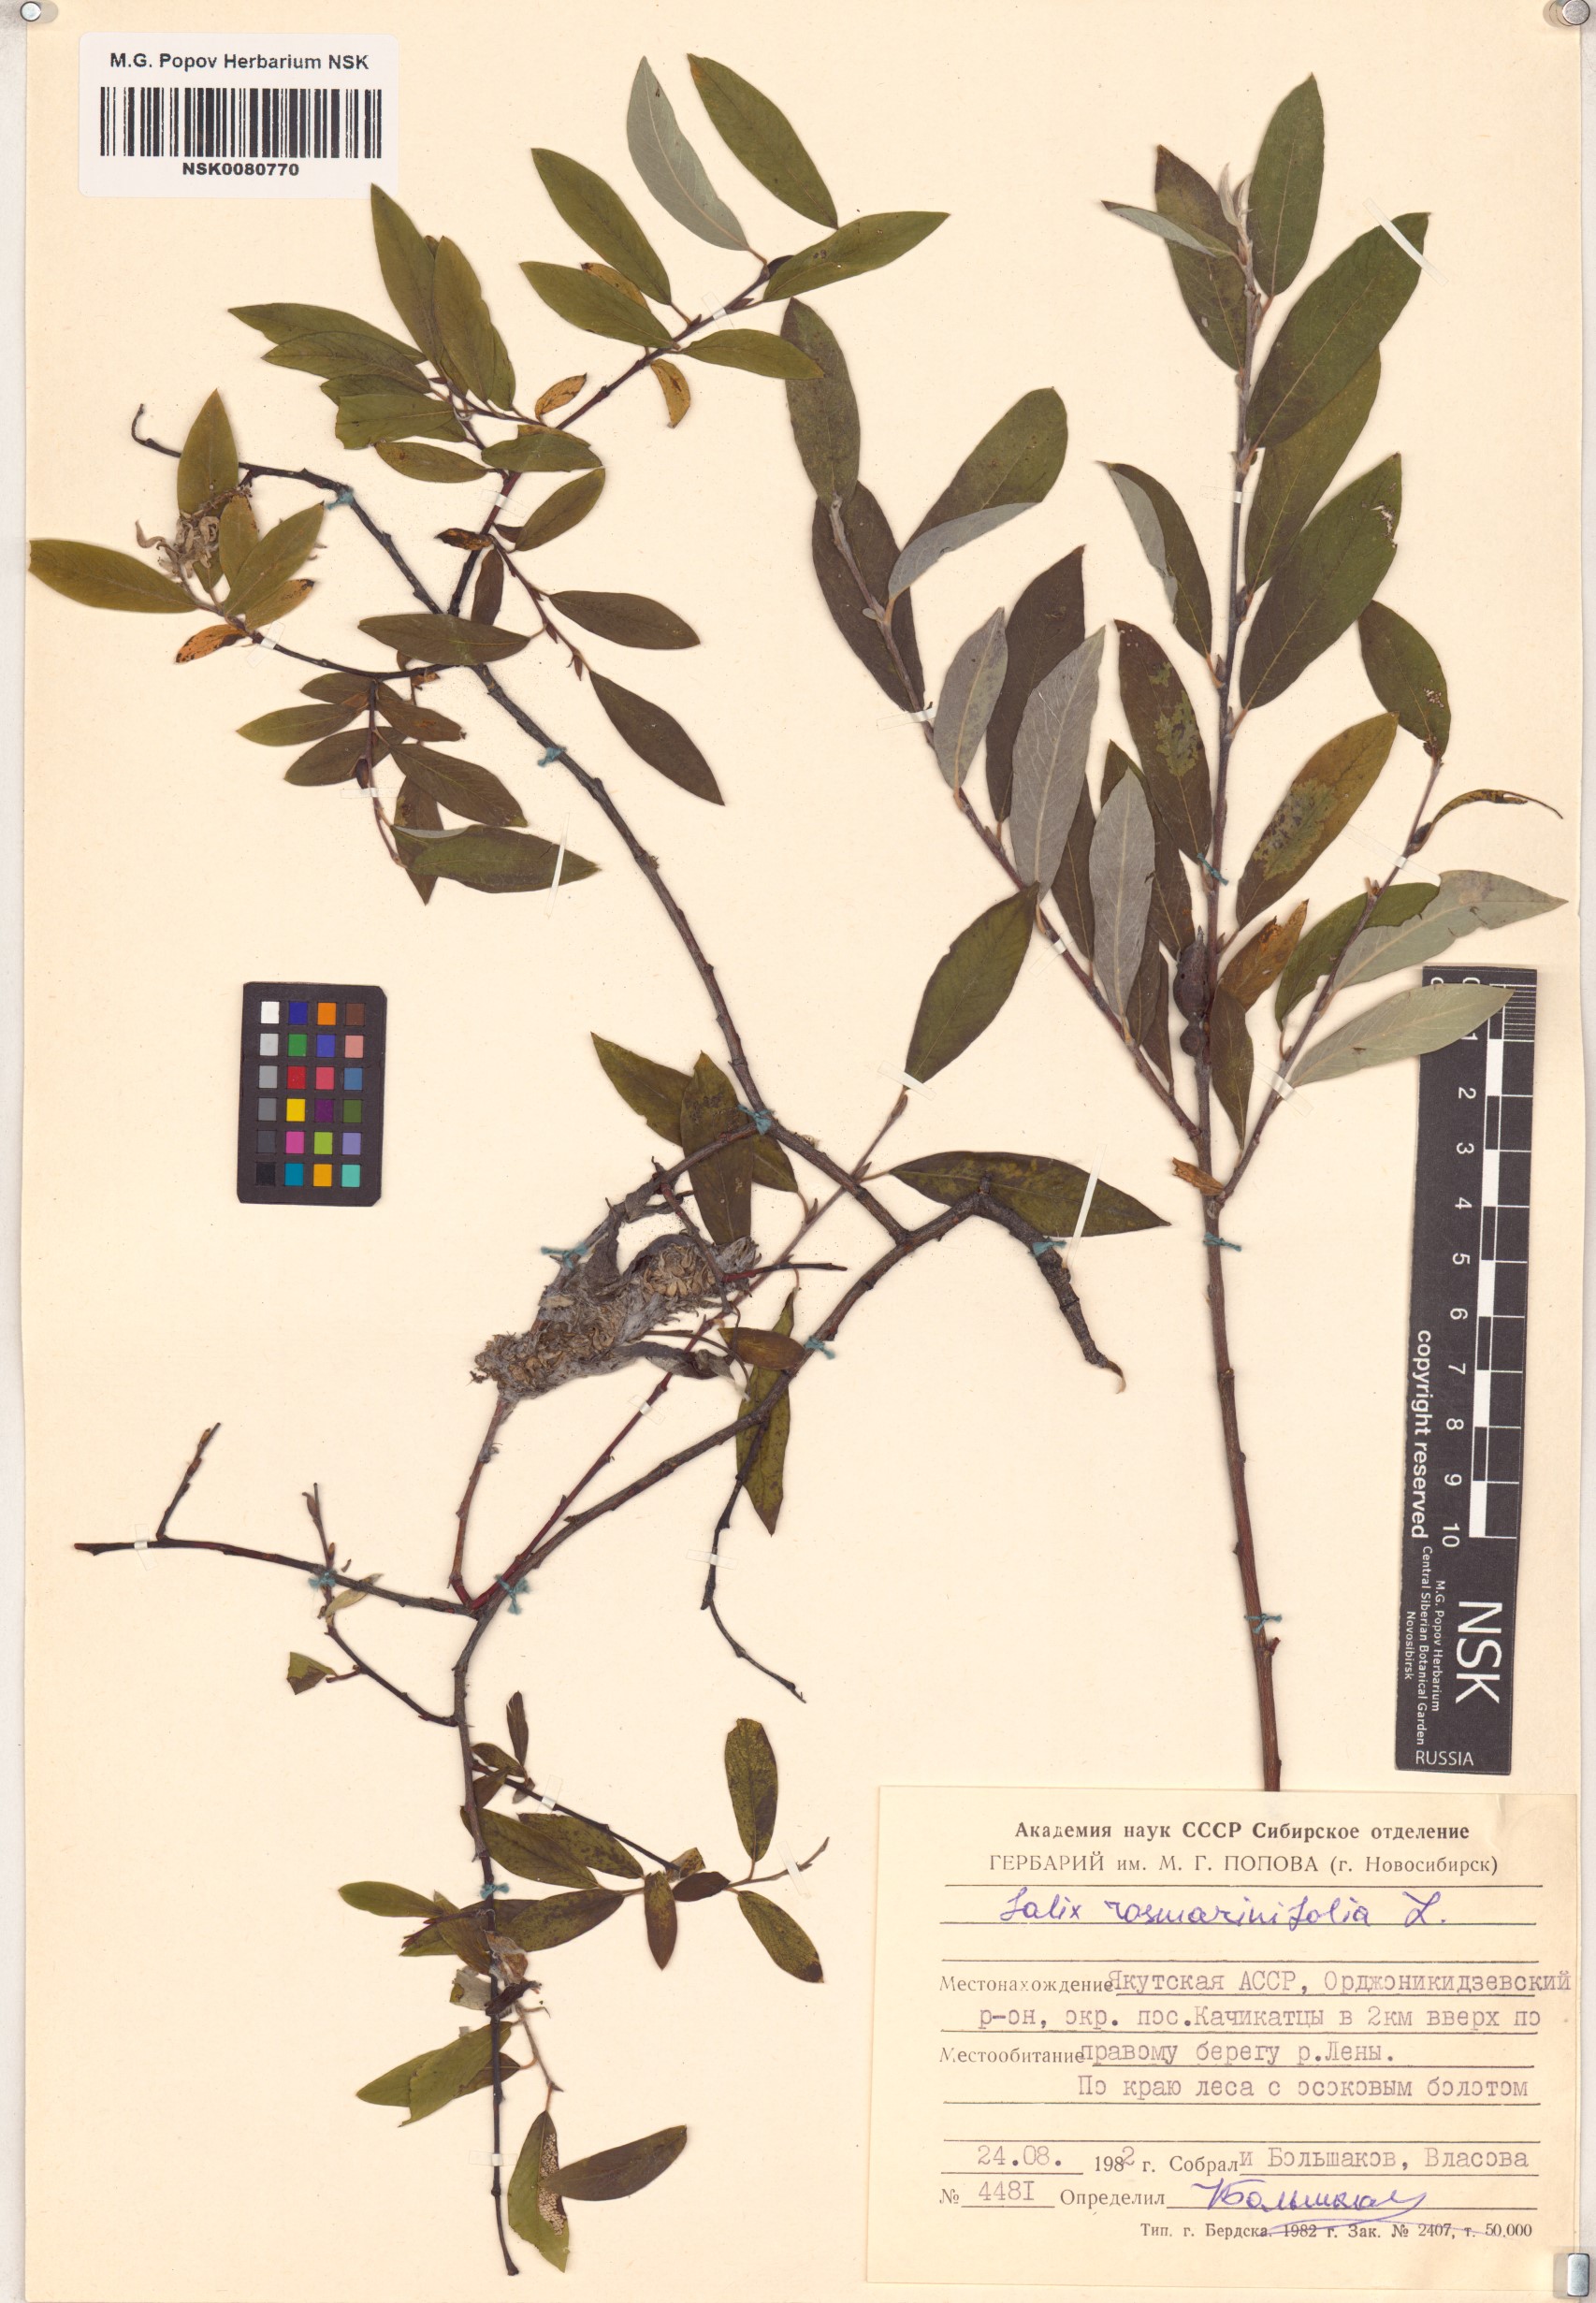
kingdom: Plantae
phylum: Tracheophyta
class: Magnoliopsida
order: Malpighiales
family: Salicaceae
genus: Salix
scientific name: Salix rosmarinifolia
